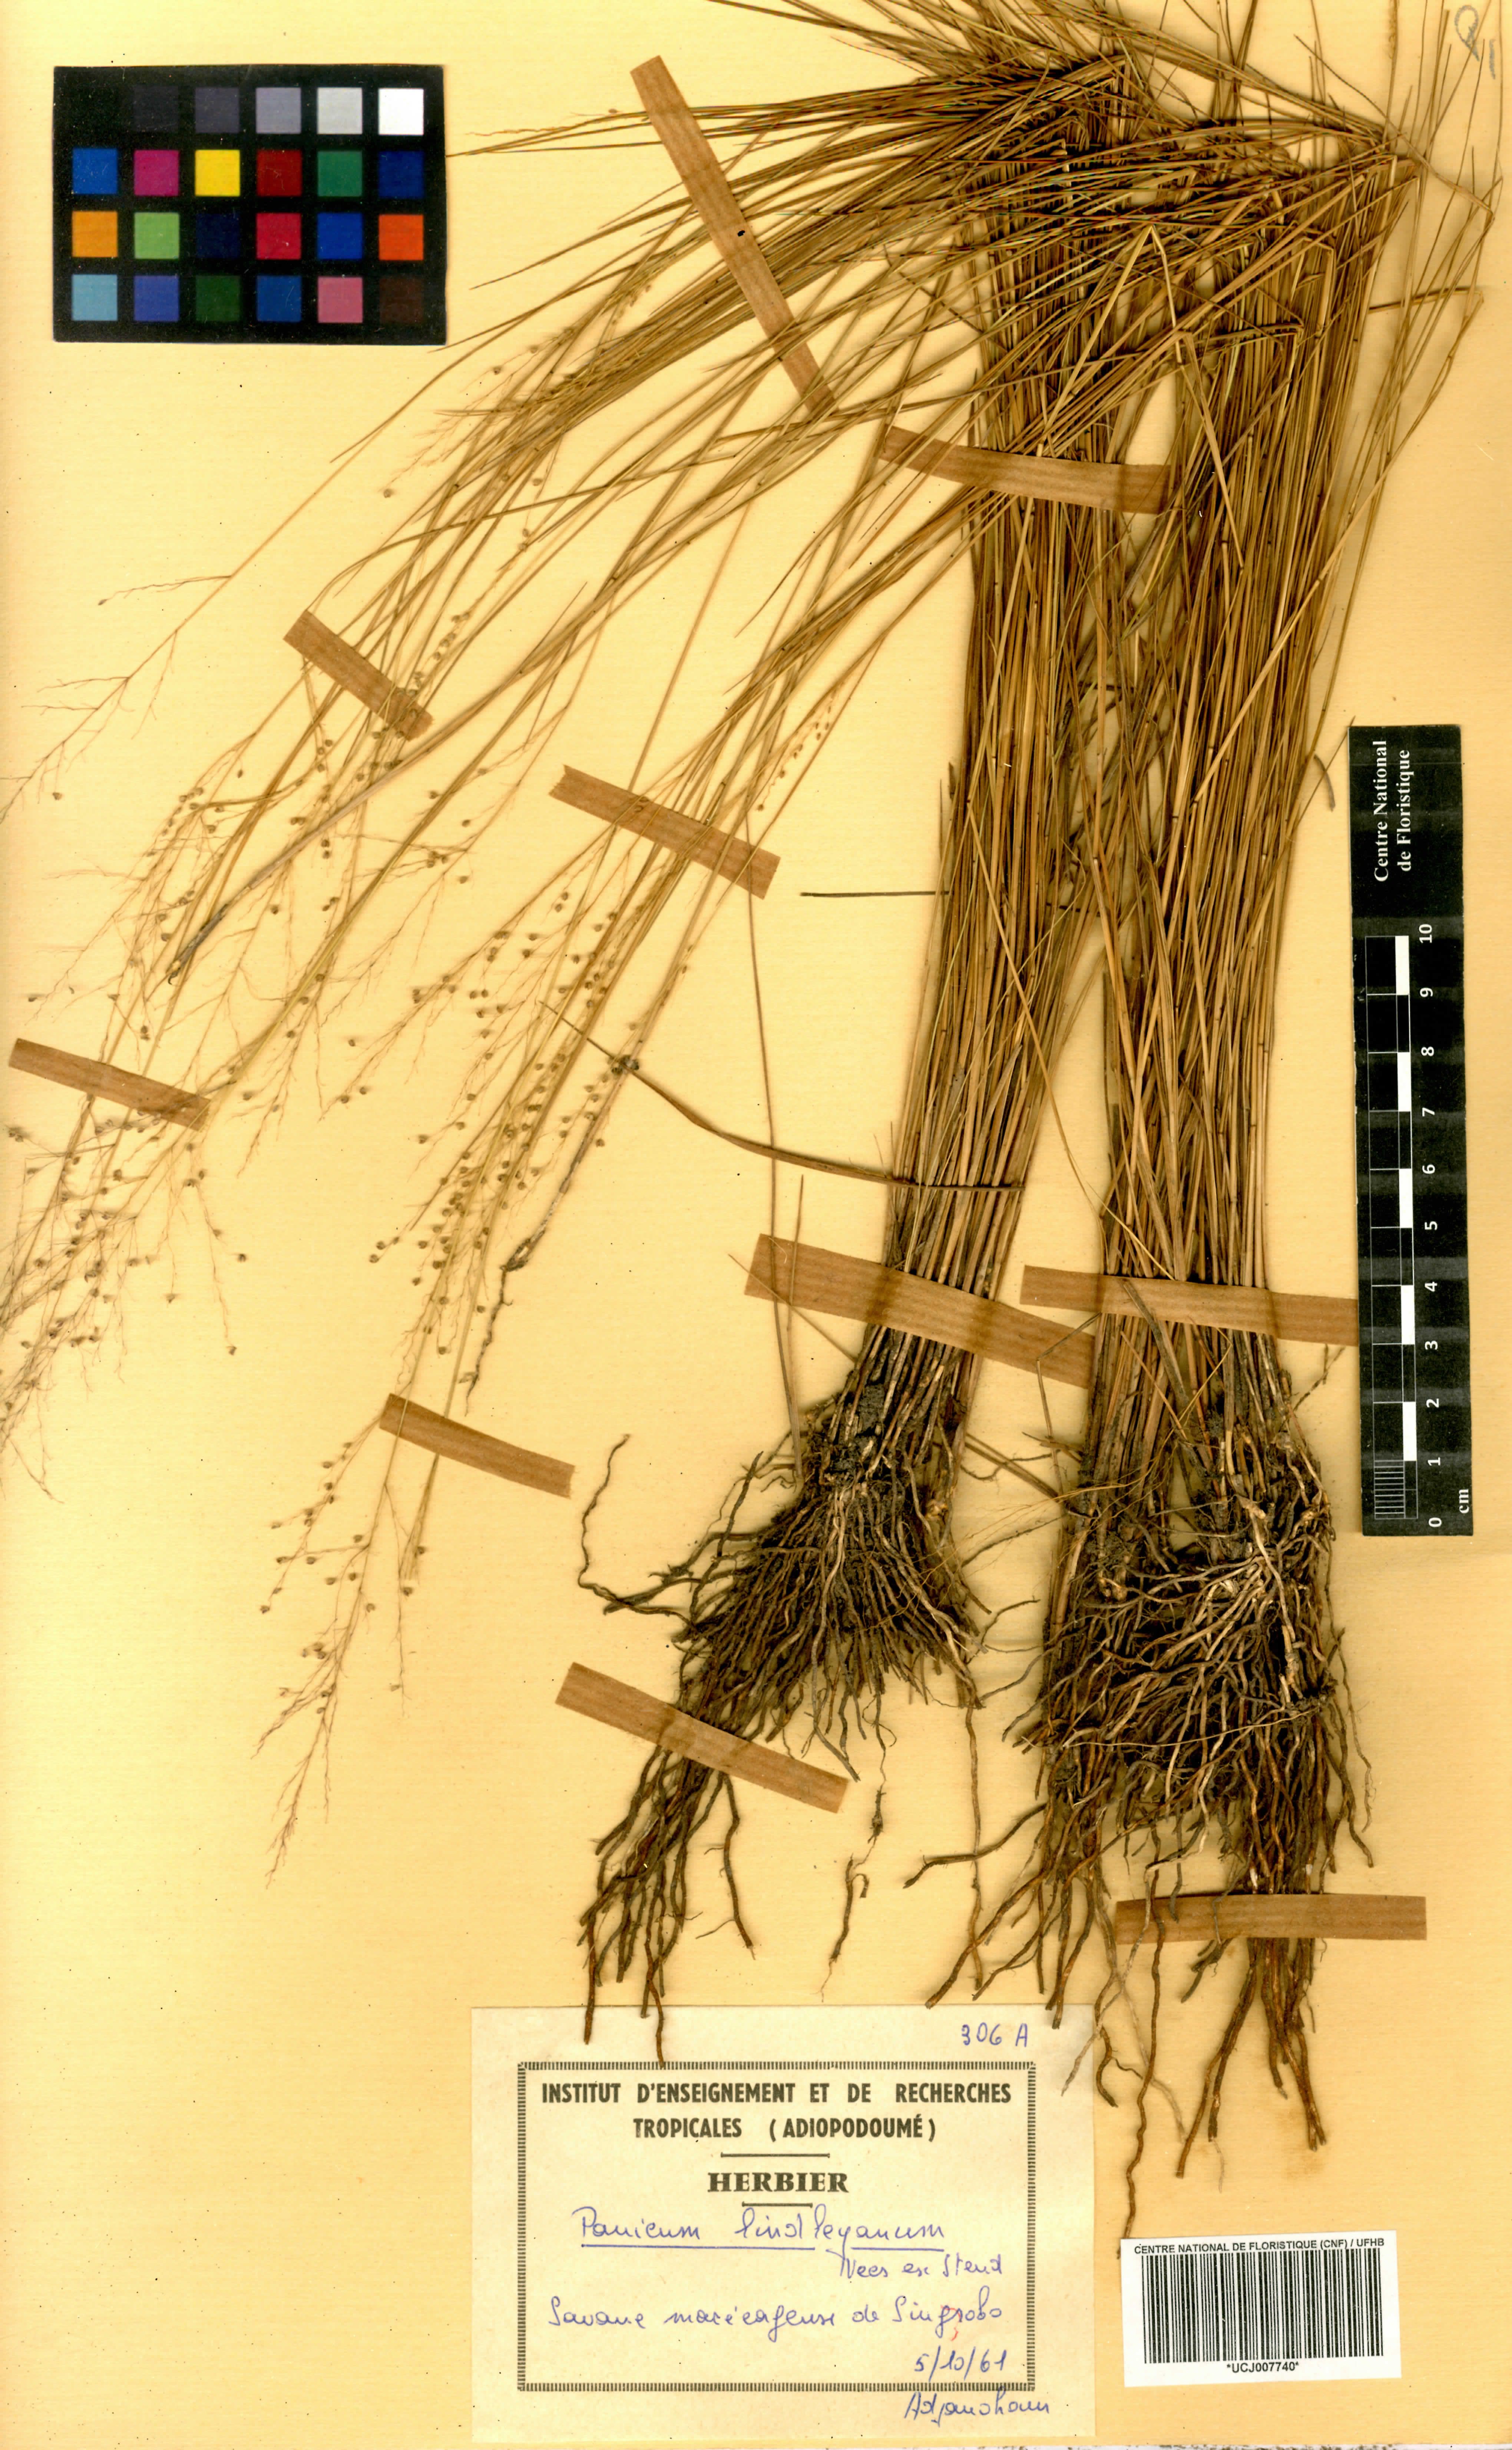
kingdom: Plantae
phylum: Tracheophyta
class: Liliopsida
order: Poales
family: Poaceae
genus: Trichanthecium
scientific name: Trichanthecium tenellum
